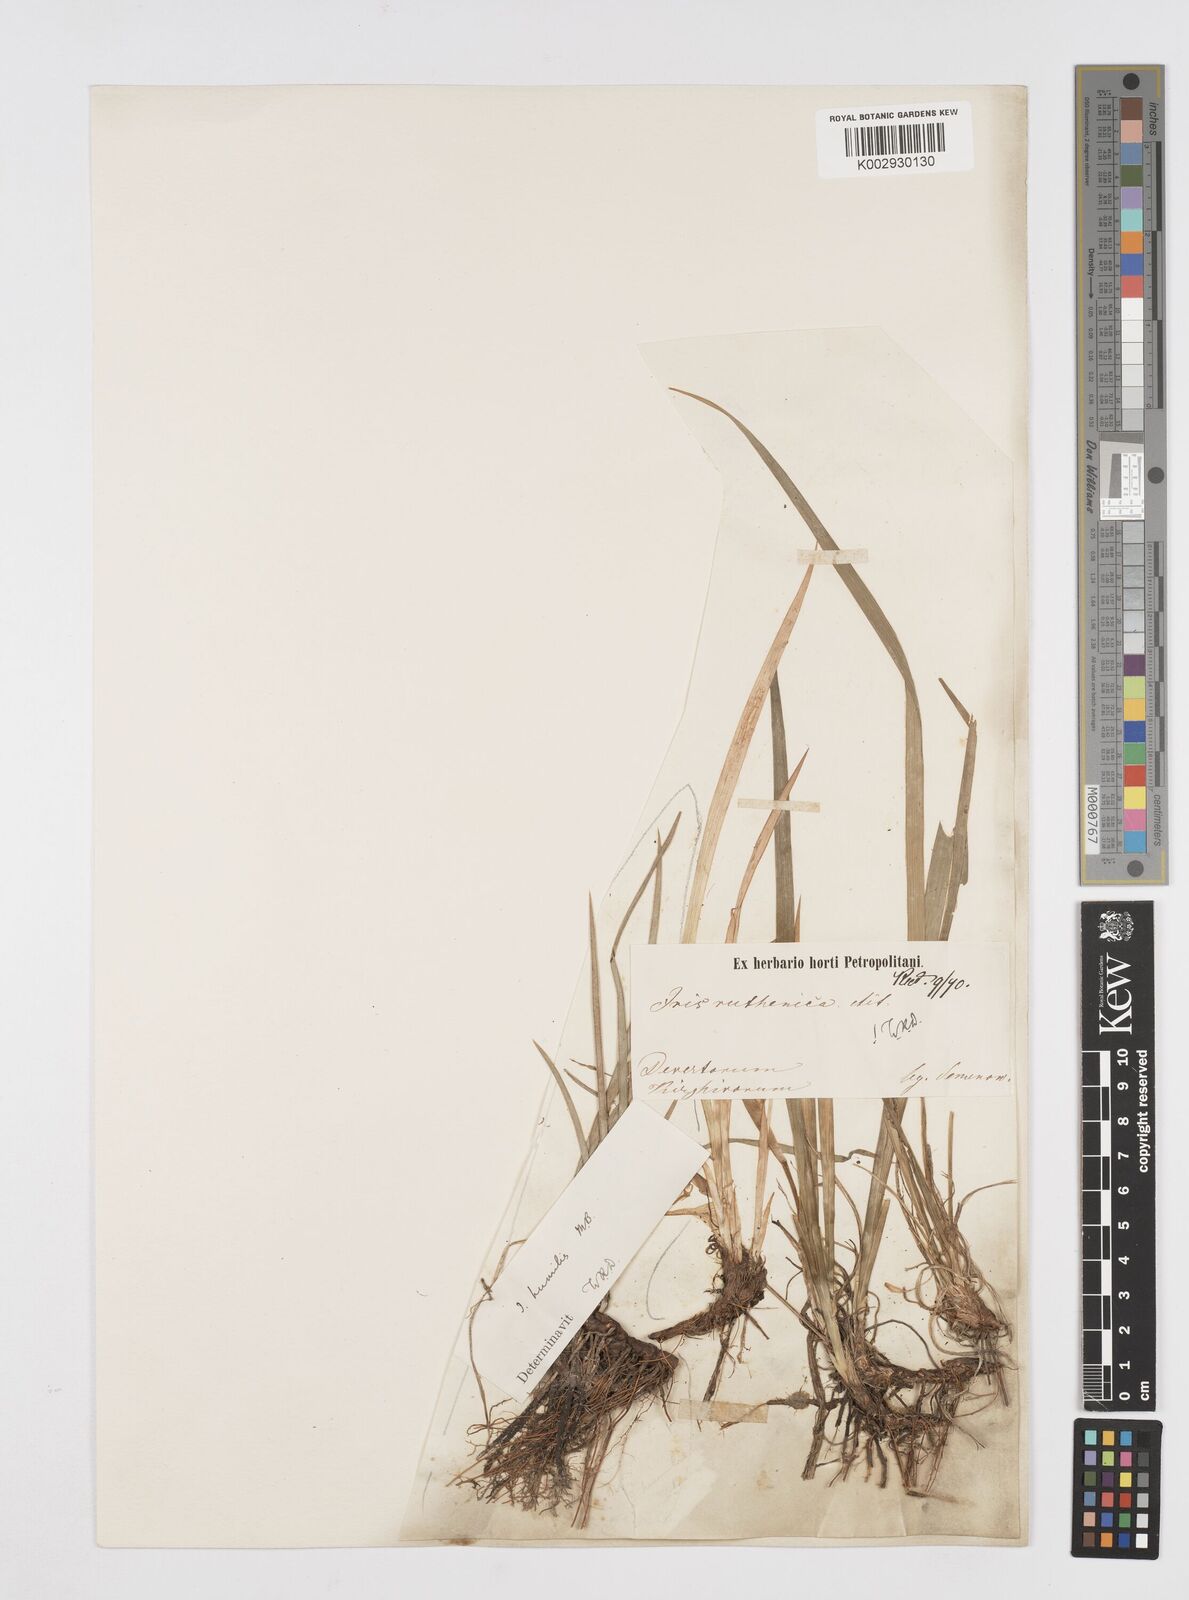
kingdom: Plantae
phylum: Tracheophyta
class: Liliopsida
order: Asparagales
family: Iridaceae
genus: Iris
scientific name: Iris ruthenica
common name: Purple-bract iris
